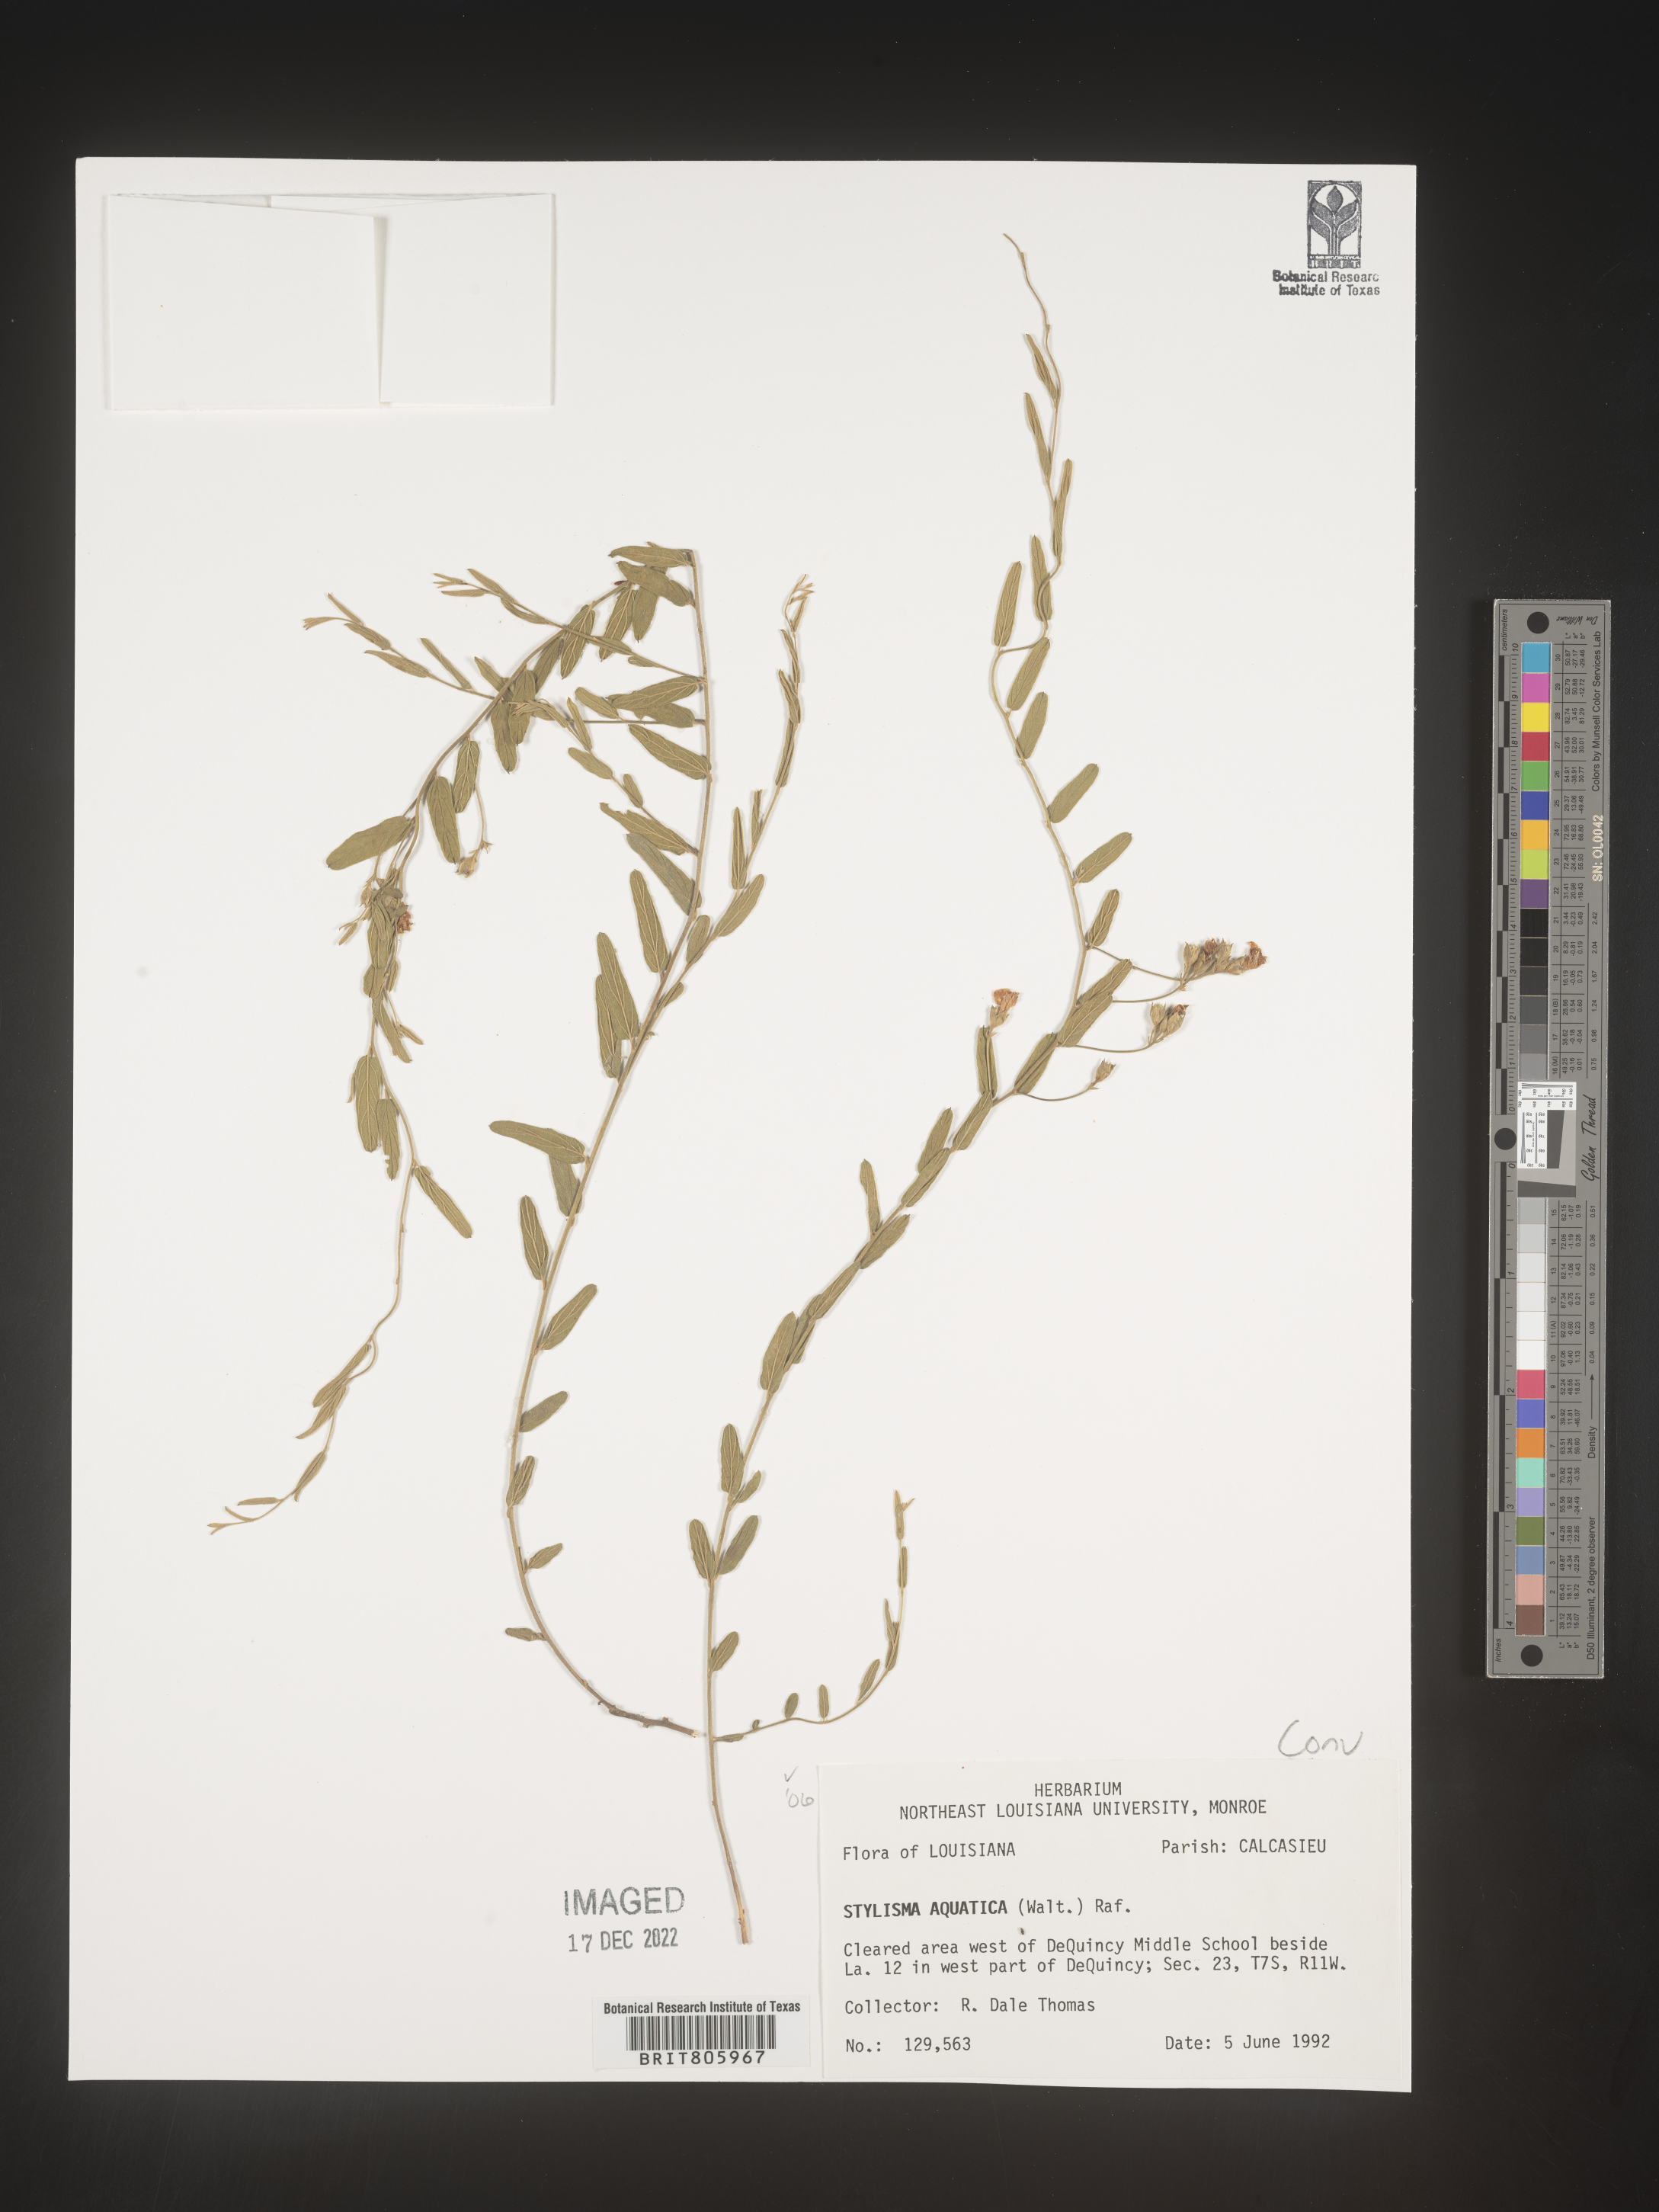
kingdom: Plantae
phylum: Tracheophyta
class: Magnoliopsida
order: Solanales
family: Convolvulaceae
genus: Stylisma
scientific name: Stylisma
